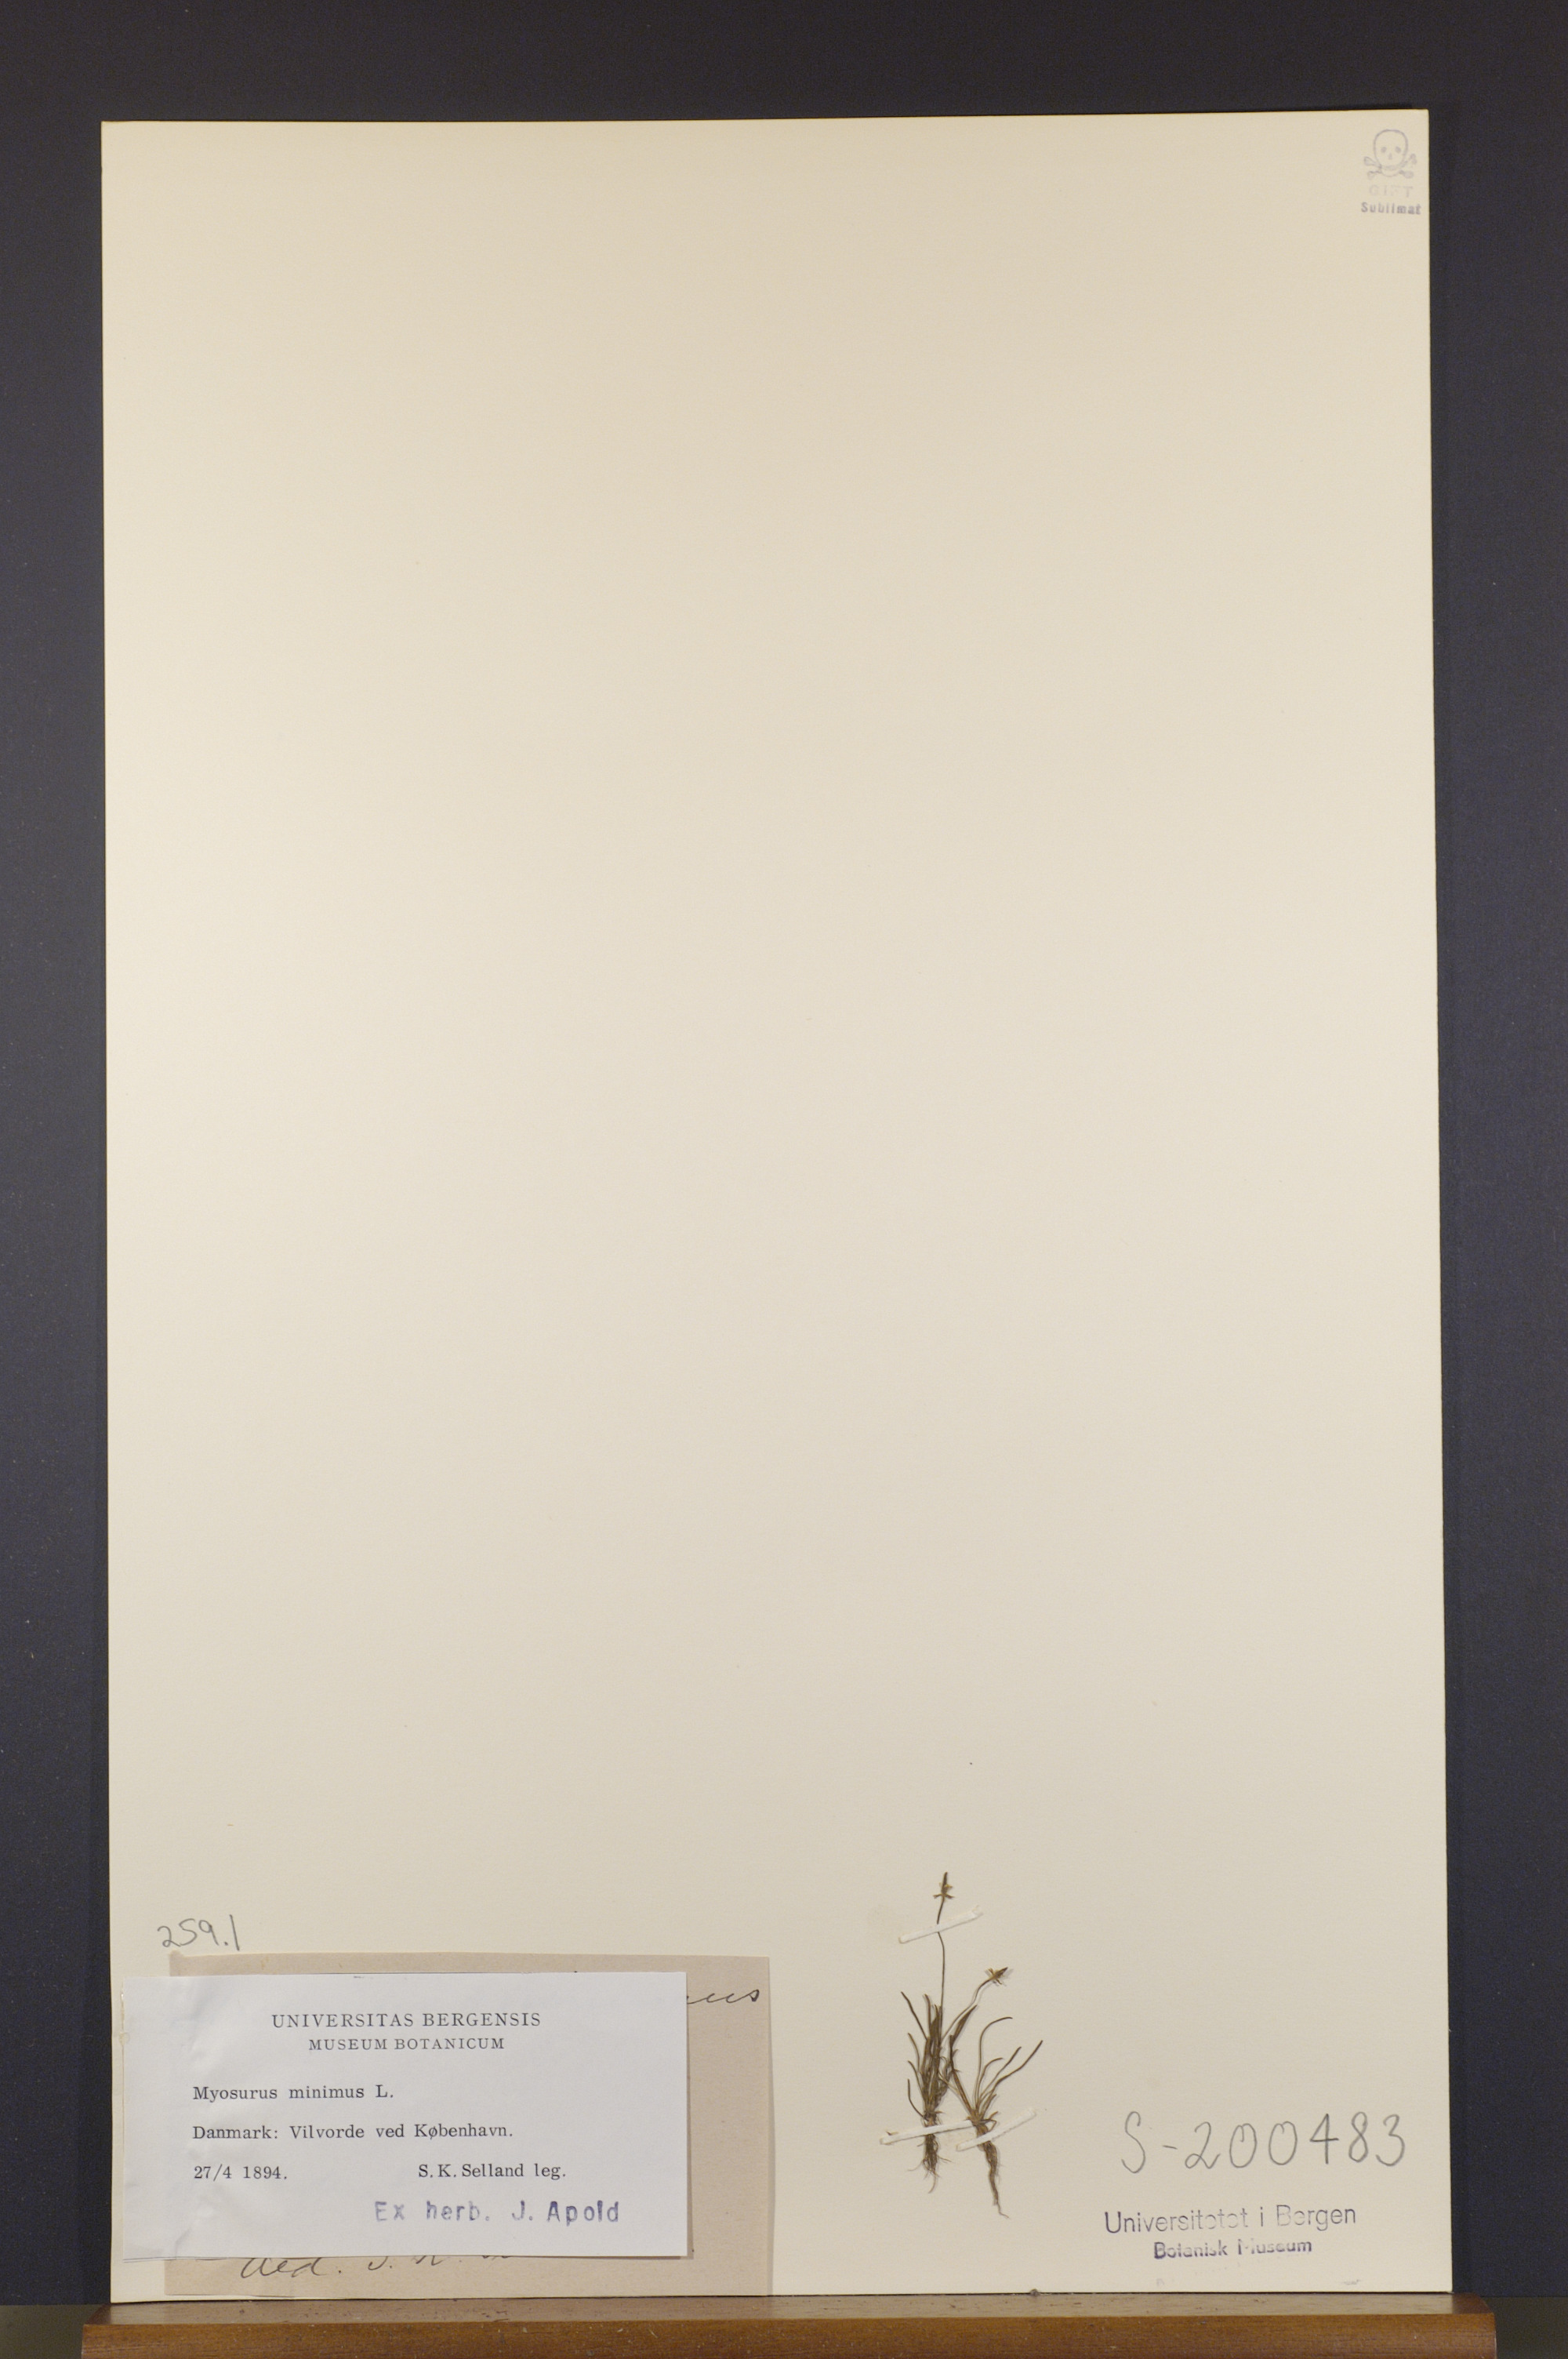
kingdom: Plantae
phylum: Tracheophyta
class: Magnoliopsida
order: Ranunculales
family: Ranunculaceae
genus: Myosurus
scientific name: Myosurus minimus
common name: Mousetail
